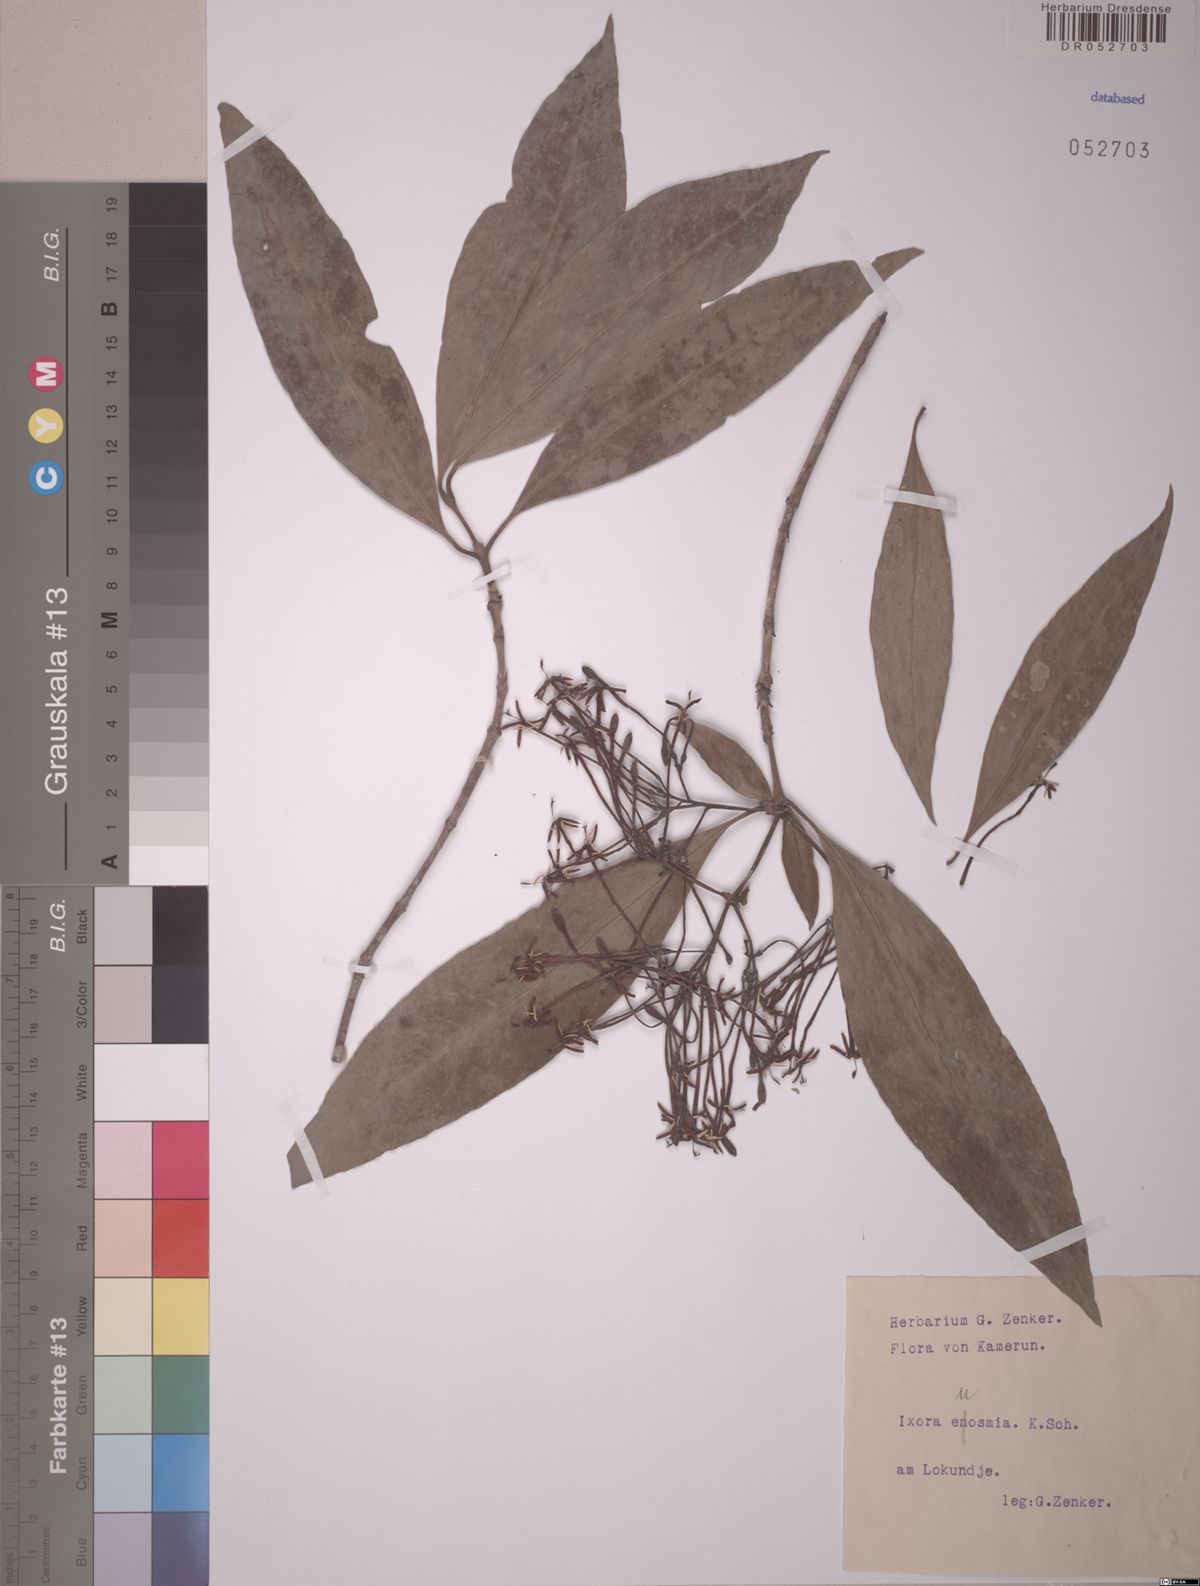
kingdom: Plantae
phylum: Tracheophyta
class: Magnoliopsida
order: Gentianales
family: Rubiaceae
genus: Ixora
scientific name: Ixora euosmia
